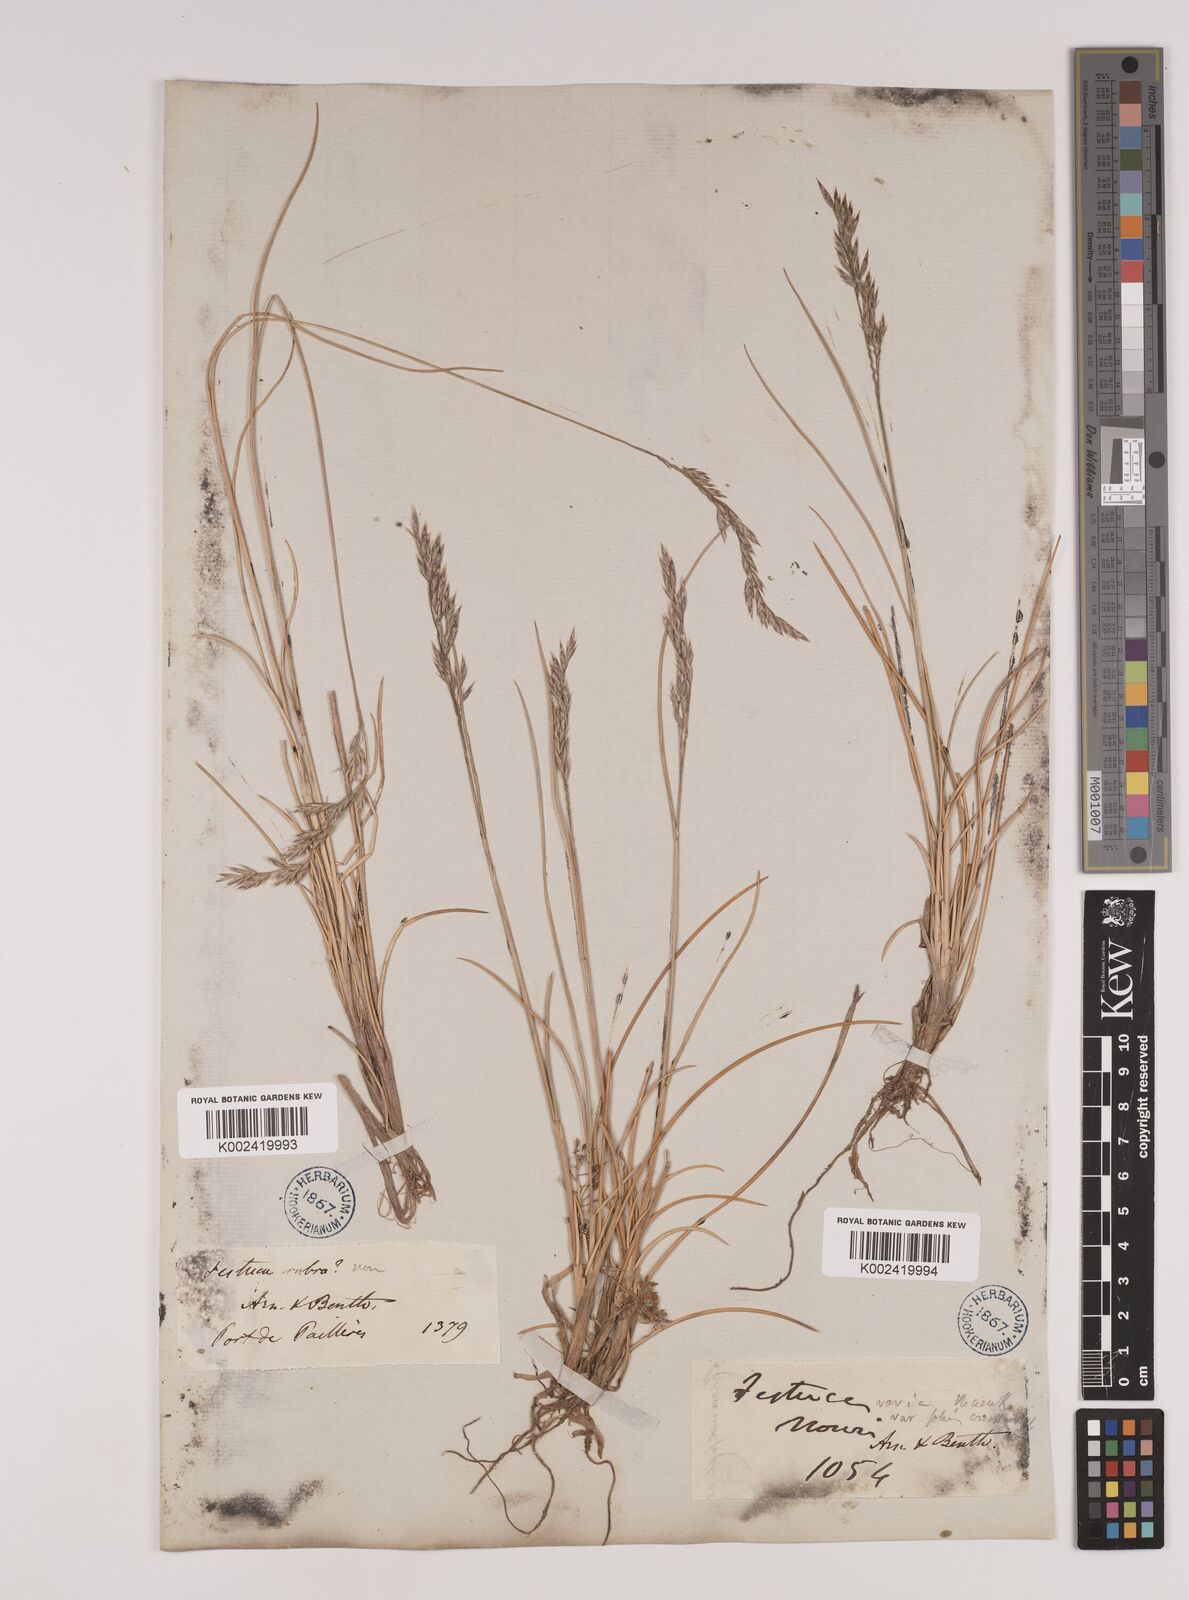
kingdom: Plantae
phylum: Tracheophyta
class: Liliopsida
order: Poales
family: Poaceae
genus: Festuca
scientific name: Festuca eskia
